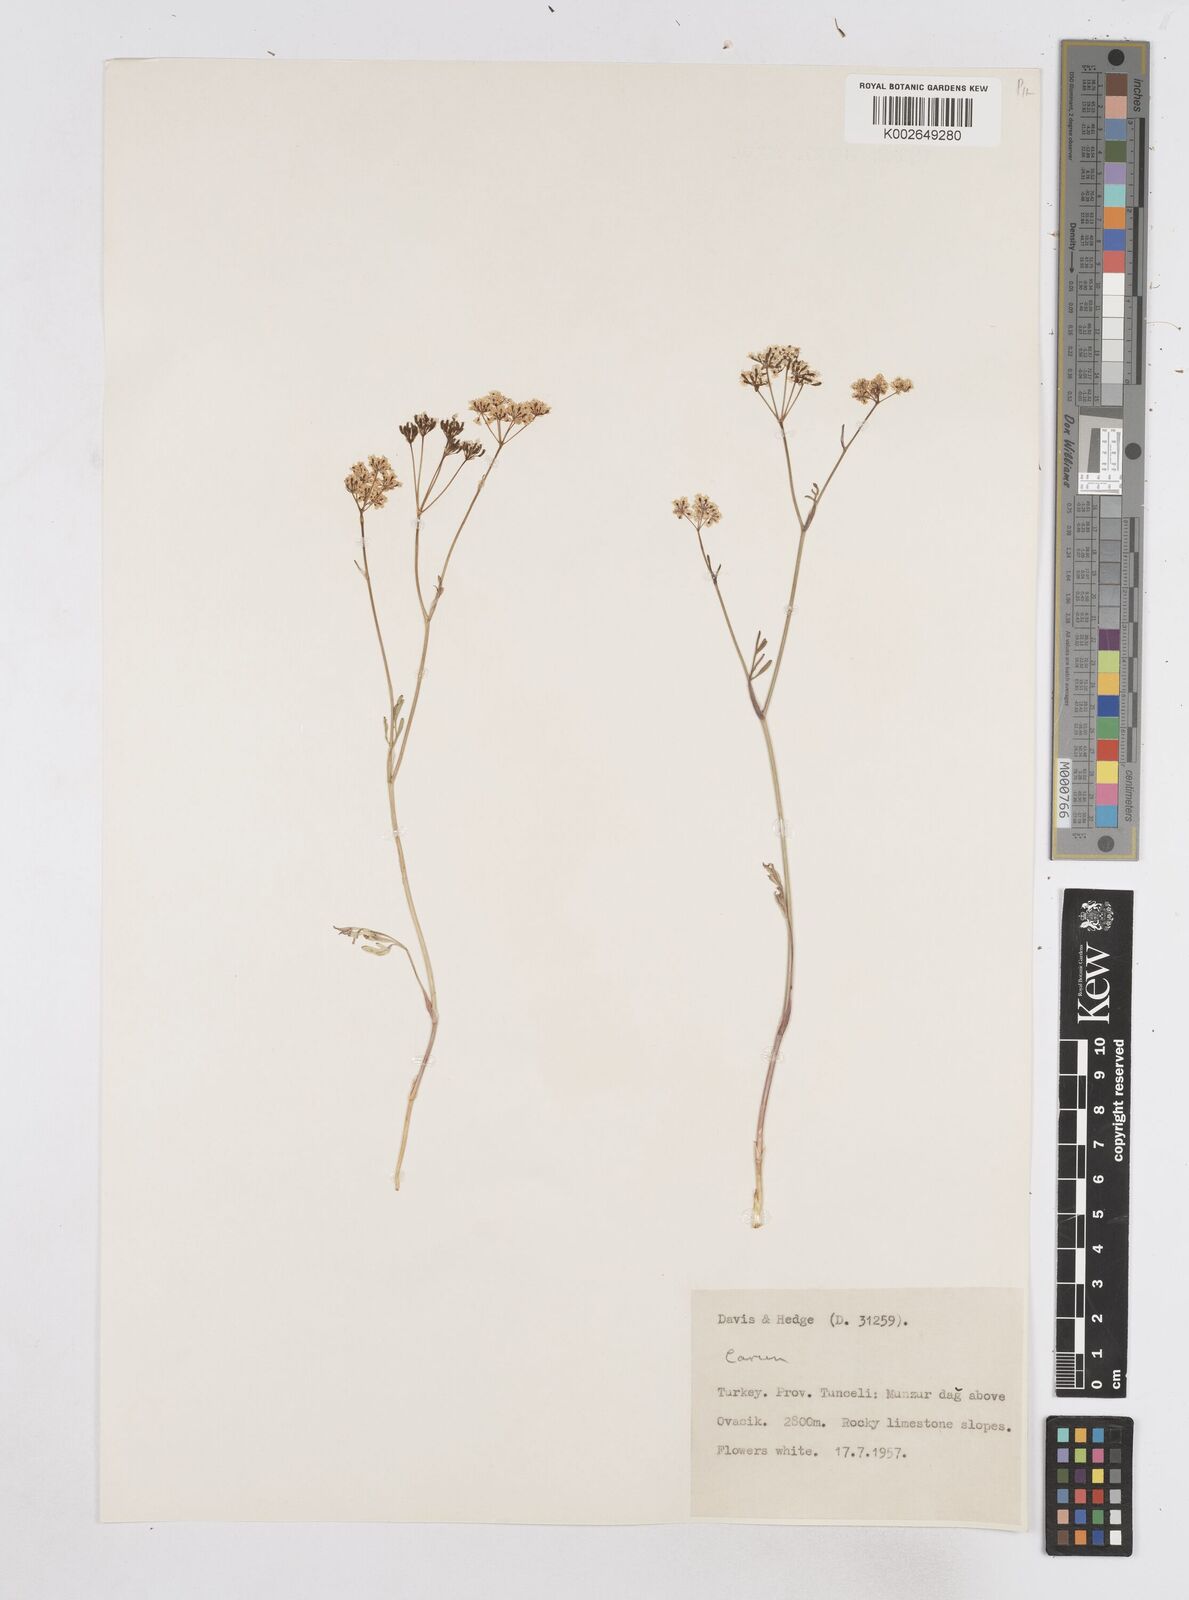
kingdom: Plantae
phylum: Tracheophyta
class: Magnoliopsida
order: Apiales
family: Apiaceae
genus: Bunium
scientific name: Bunium bourgaei
